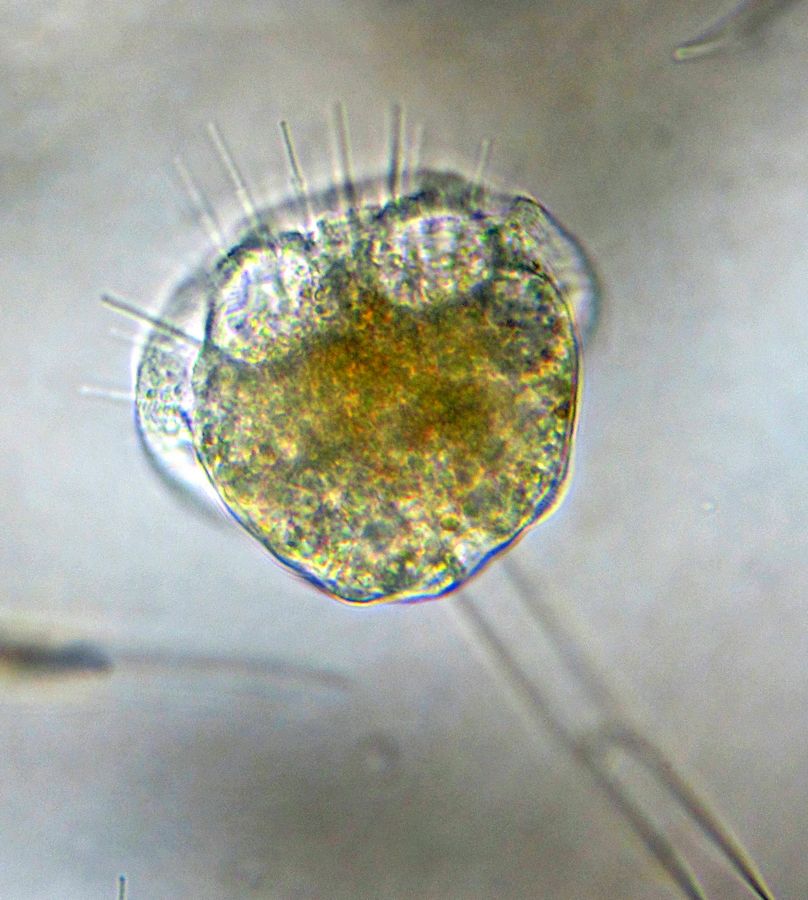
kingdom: Chromista
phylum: Ciliophora
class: Phyllopharyngea
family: Ephelotidae
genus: Ephelota
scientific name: Ephelota gemmipara
